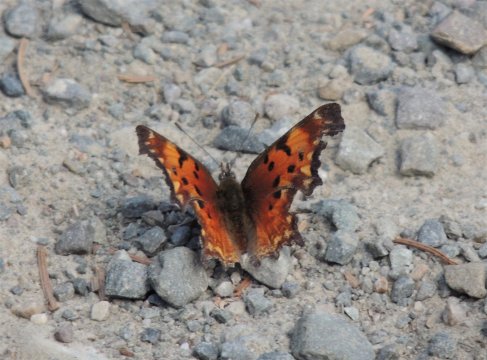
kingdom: Animalia
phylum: Arthropoda
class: Insecta
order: Lepidoptera
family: Nymphalidae
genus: Polygonia
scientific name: Polygonia gracilis
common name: Hoary Comma
